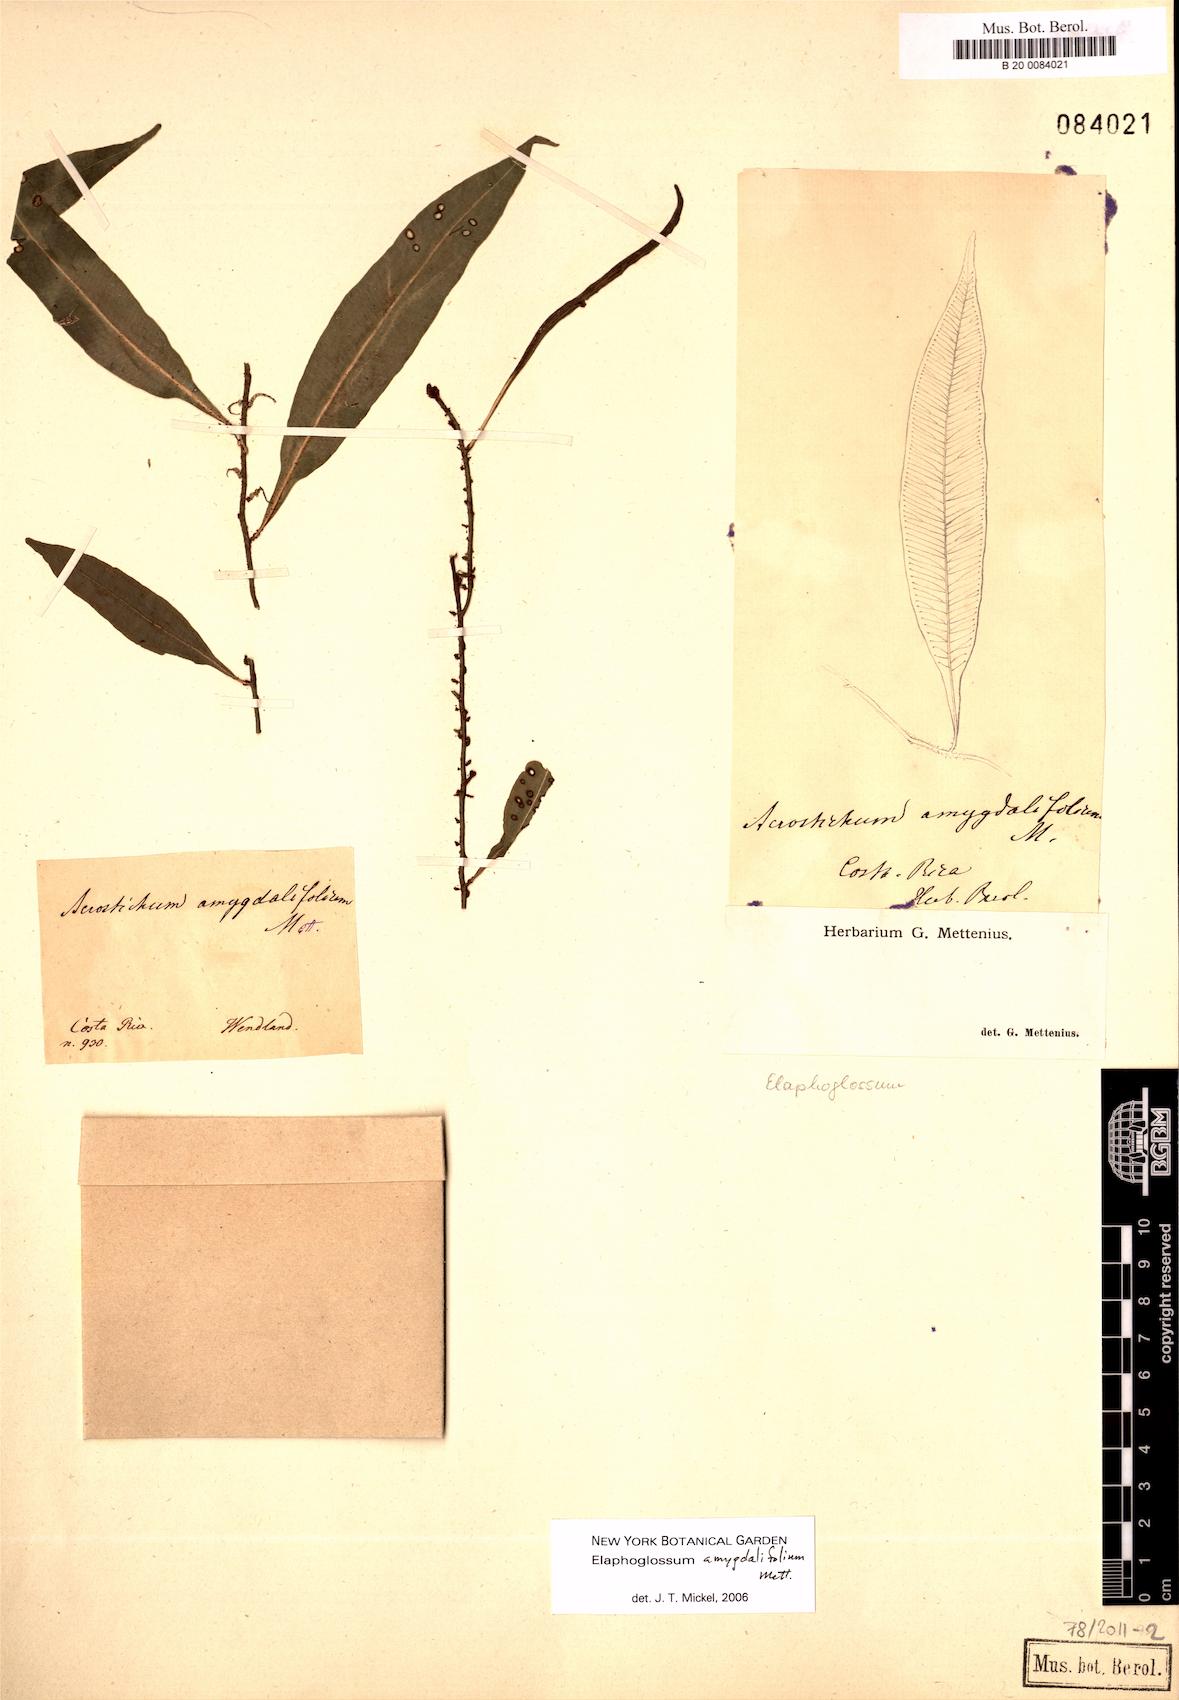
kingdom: Plantae
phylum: Tracheophyta
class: Polypodiopsida
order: Polypodiales
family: Dryopteridaceae
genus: Elaphoglossum
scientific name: Elaphoglossum amygdalifolium
